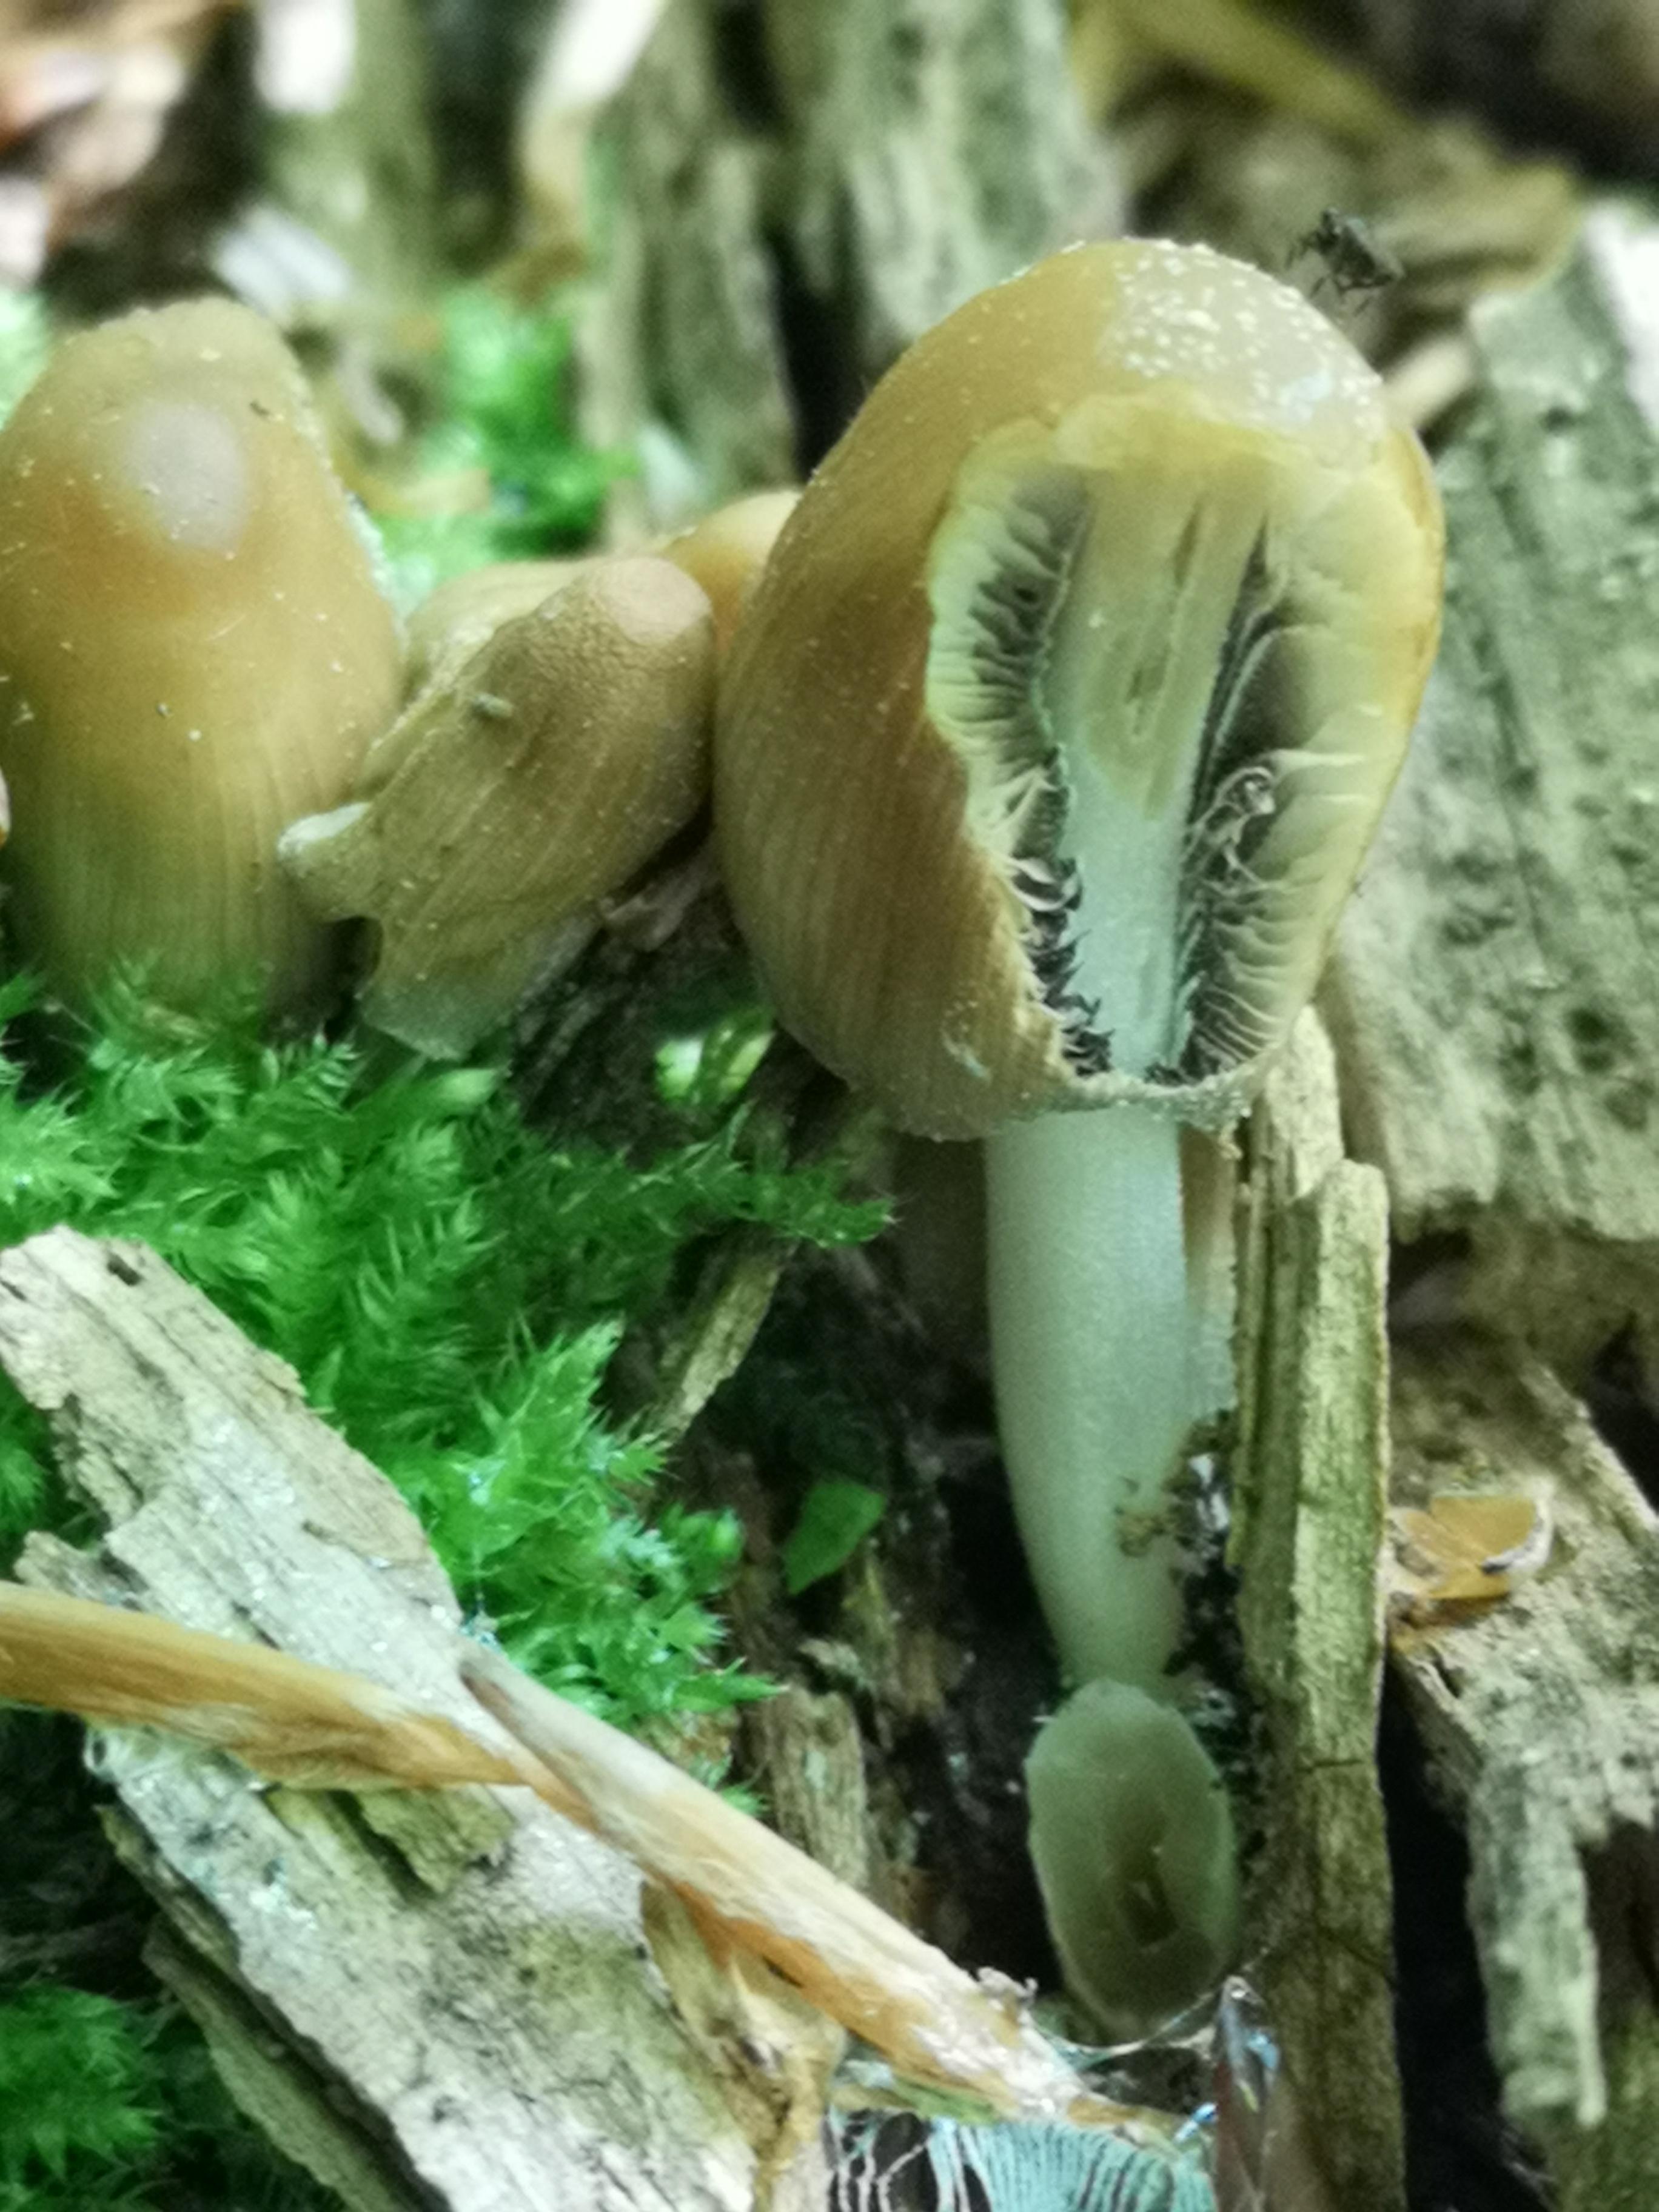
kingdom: Fungi
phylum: Basidiomycota
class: Agaricomycetes
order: Agaricales
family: Psathyrellaceae
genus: Coprinellus
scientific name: Coprinellus micaceus
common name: glimmer-blækhat
